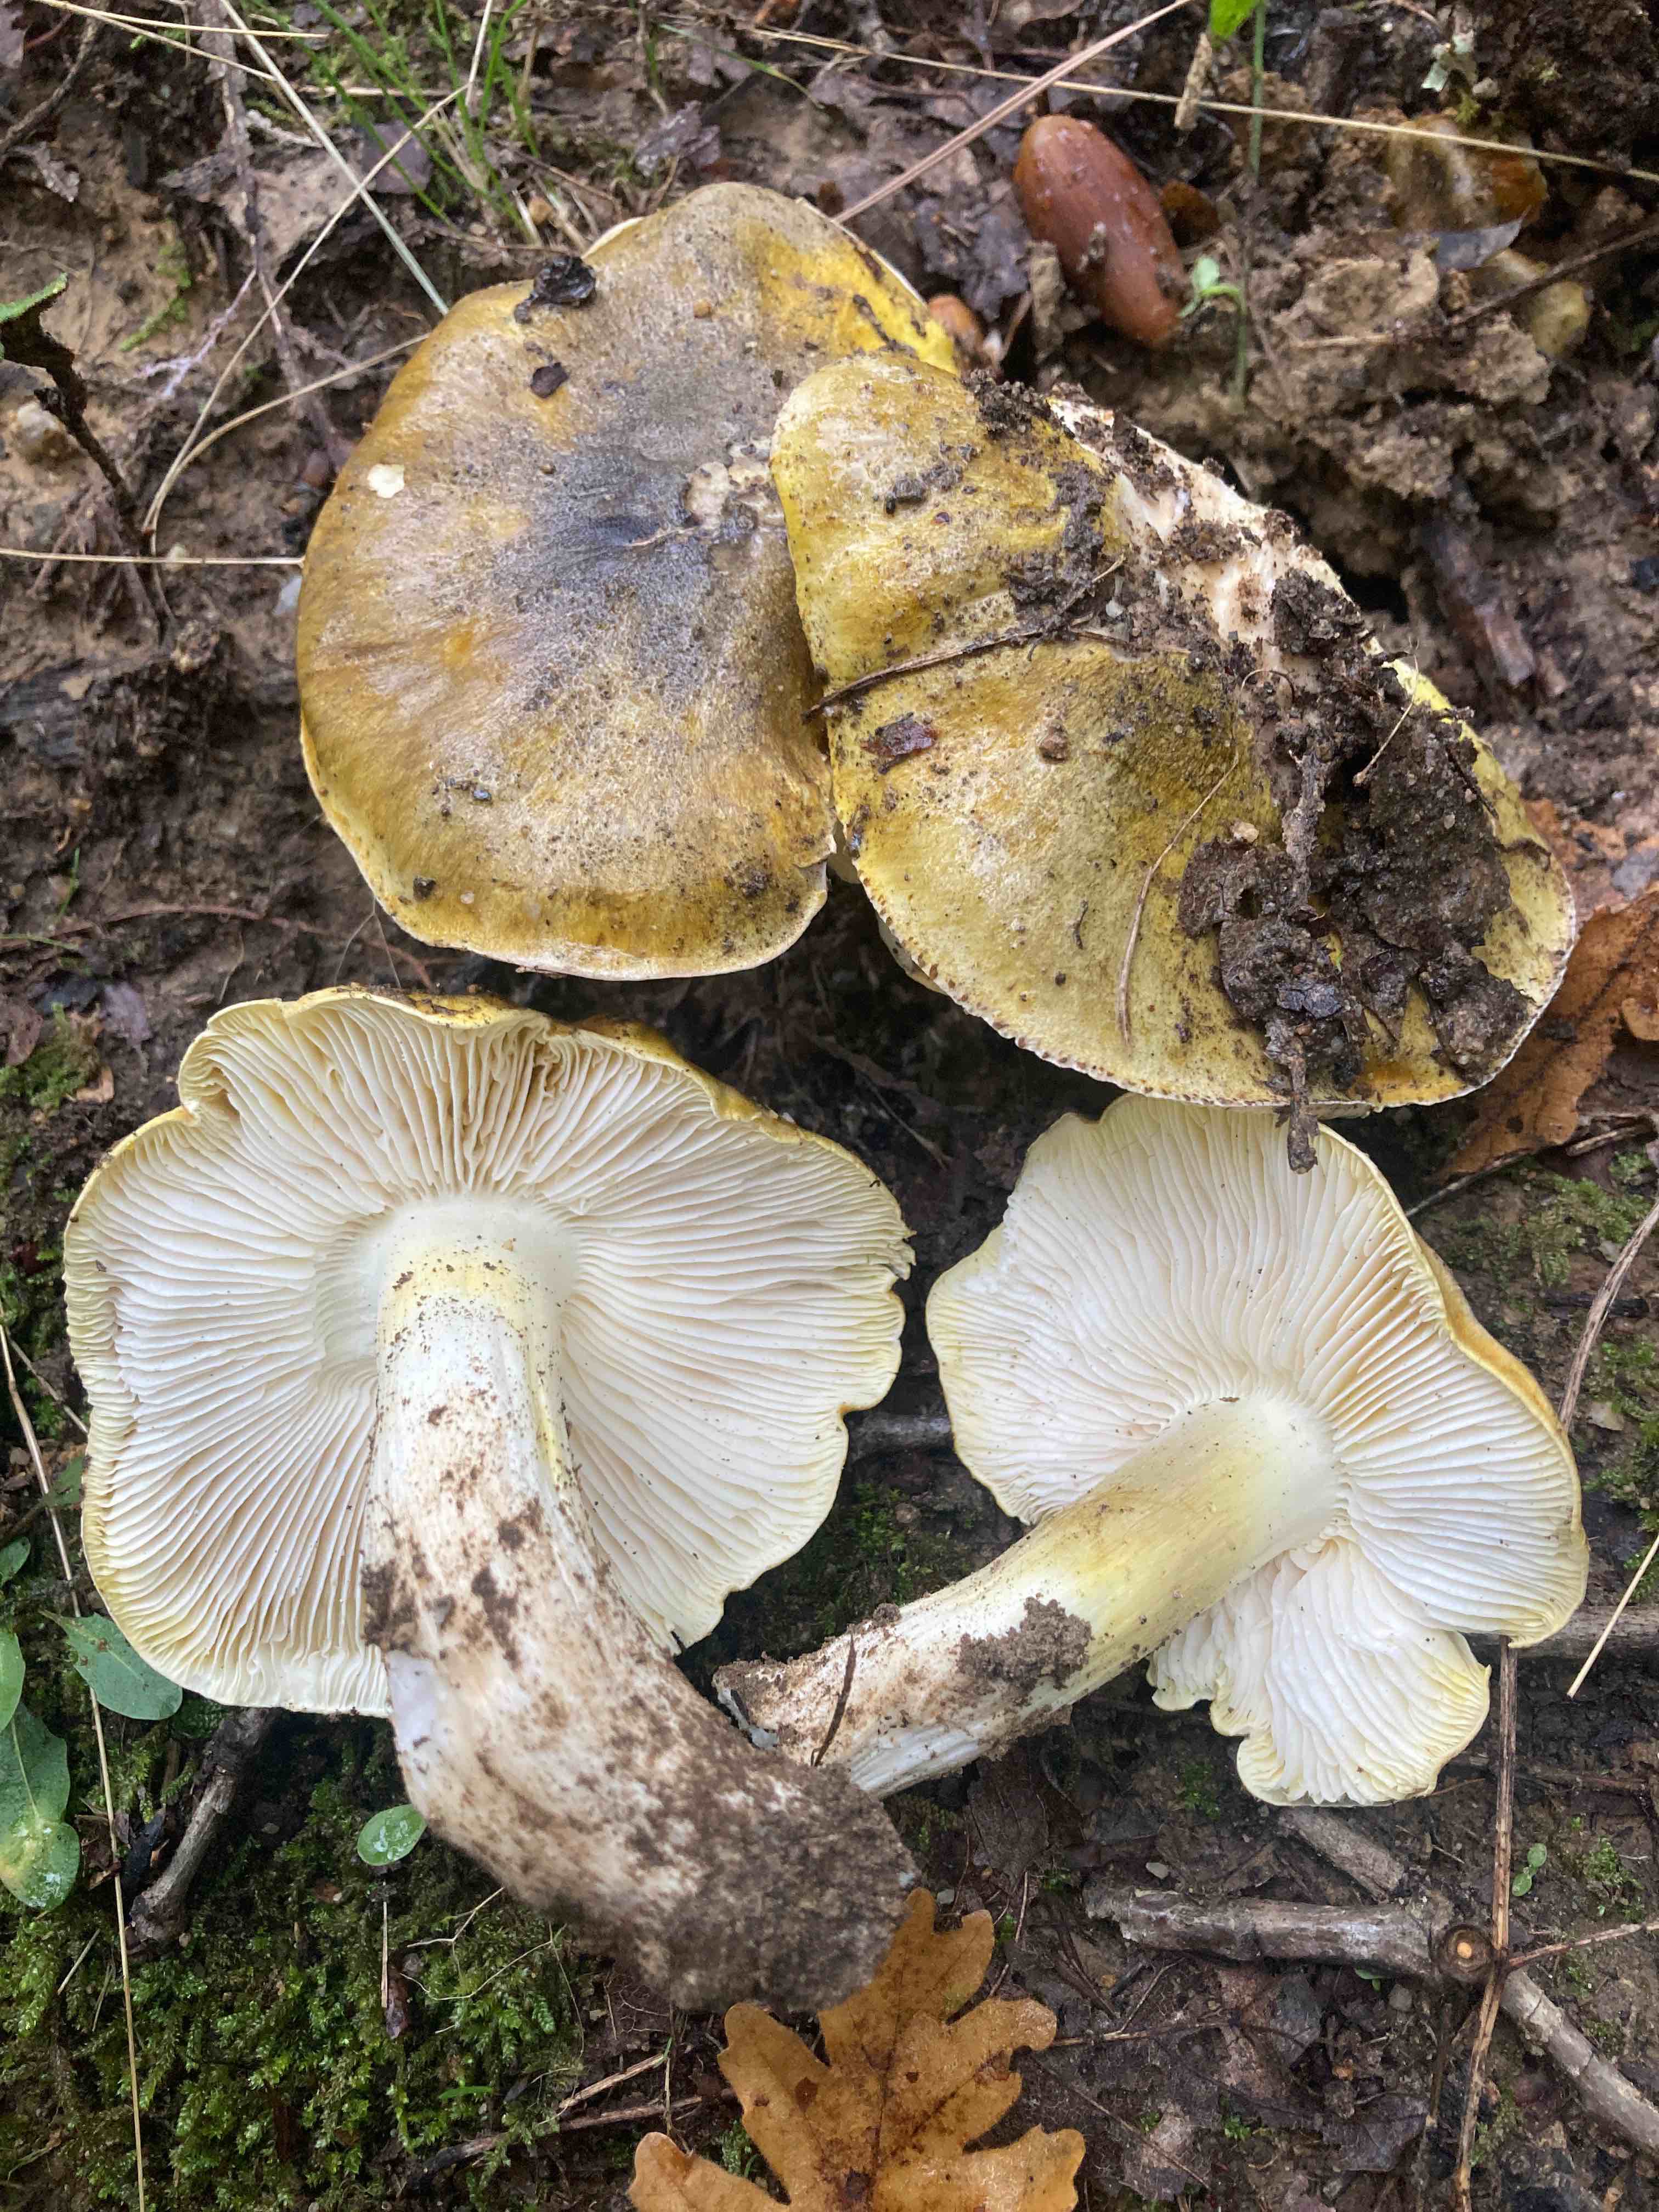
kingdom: Fungi
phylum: Basidiomycota
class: Agaricomycetes
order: Agaricales
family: Tricholomataceae
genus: Tricholoma
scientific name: Tricholoma sejunctum
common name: grøngul ridderhat
